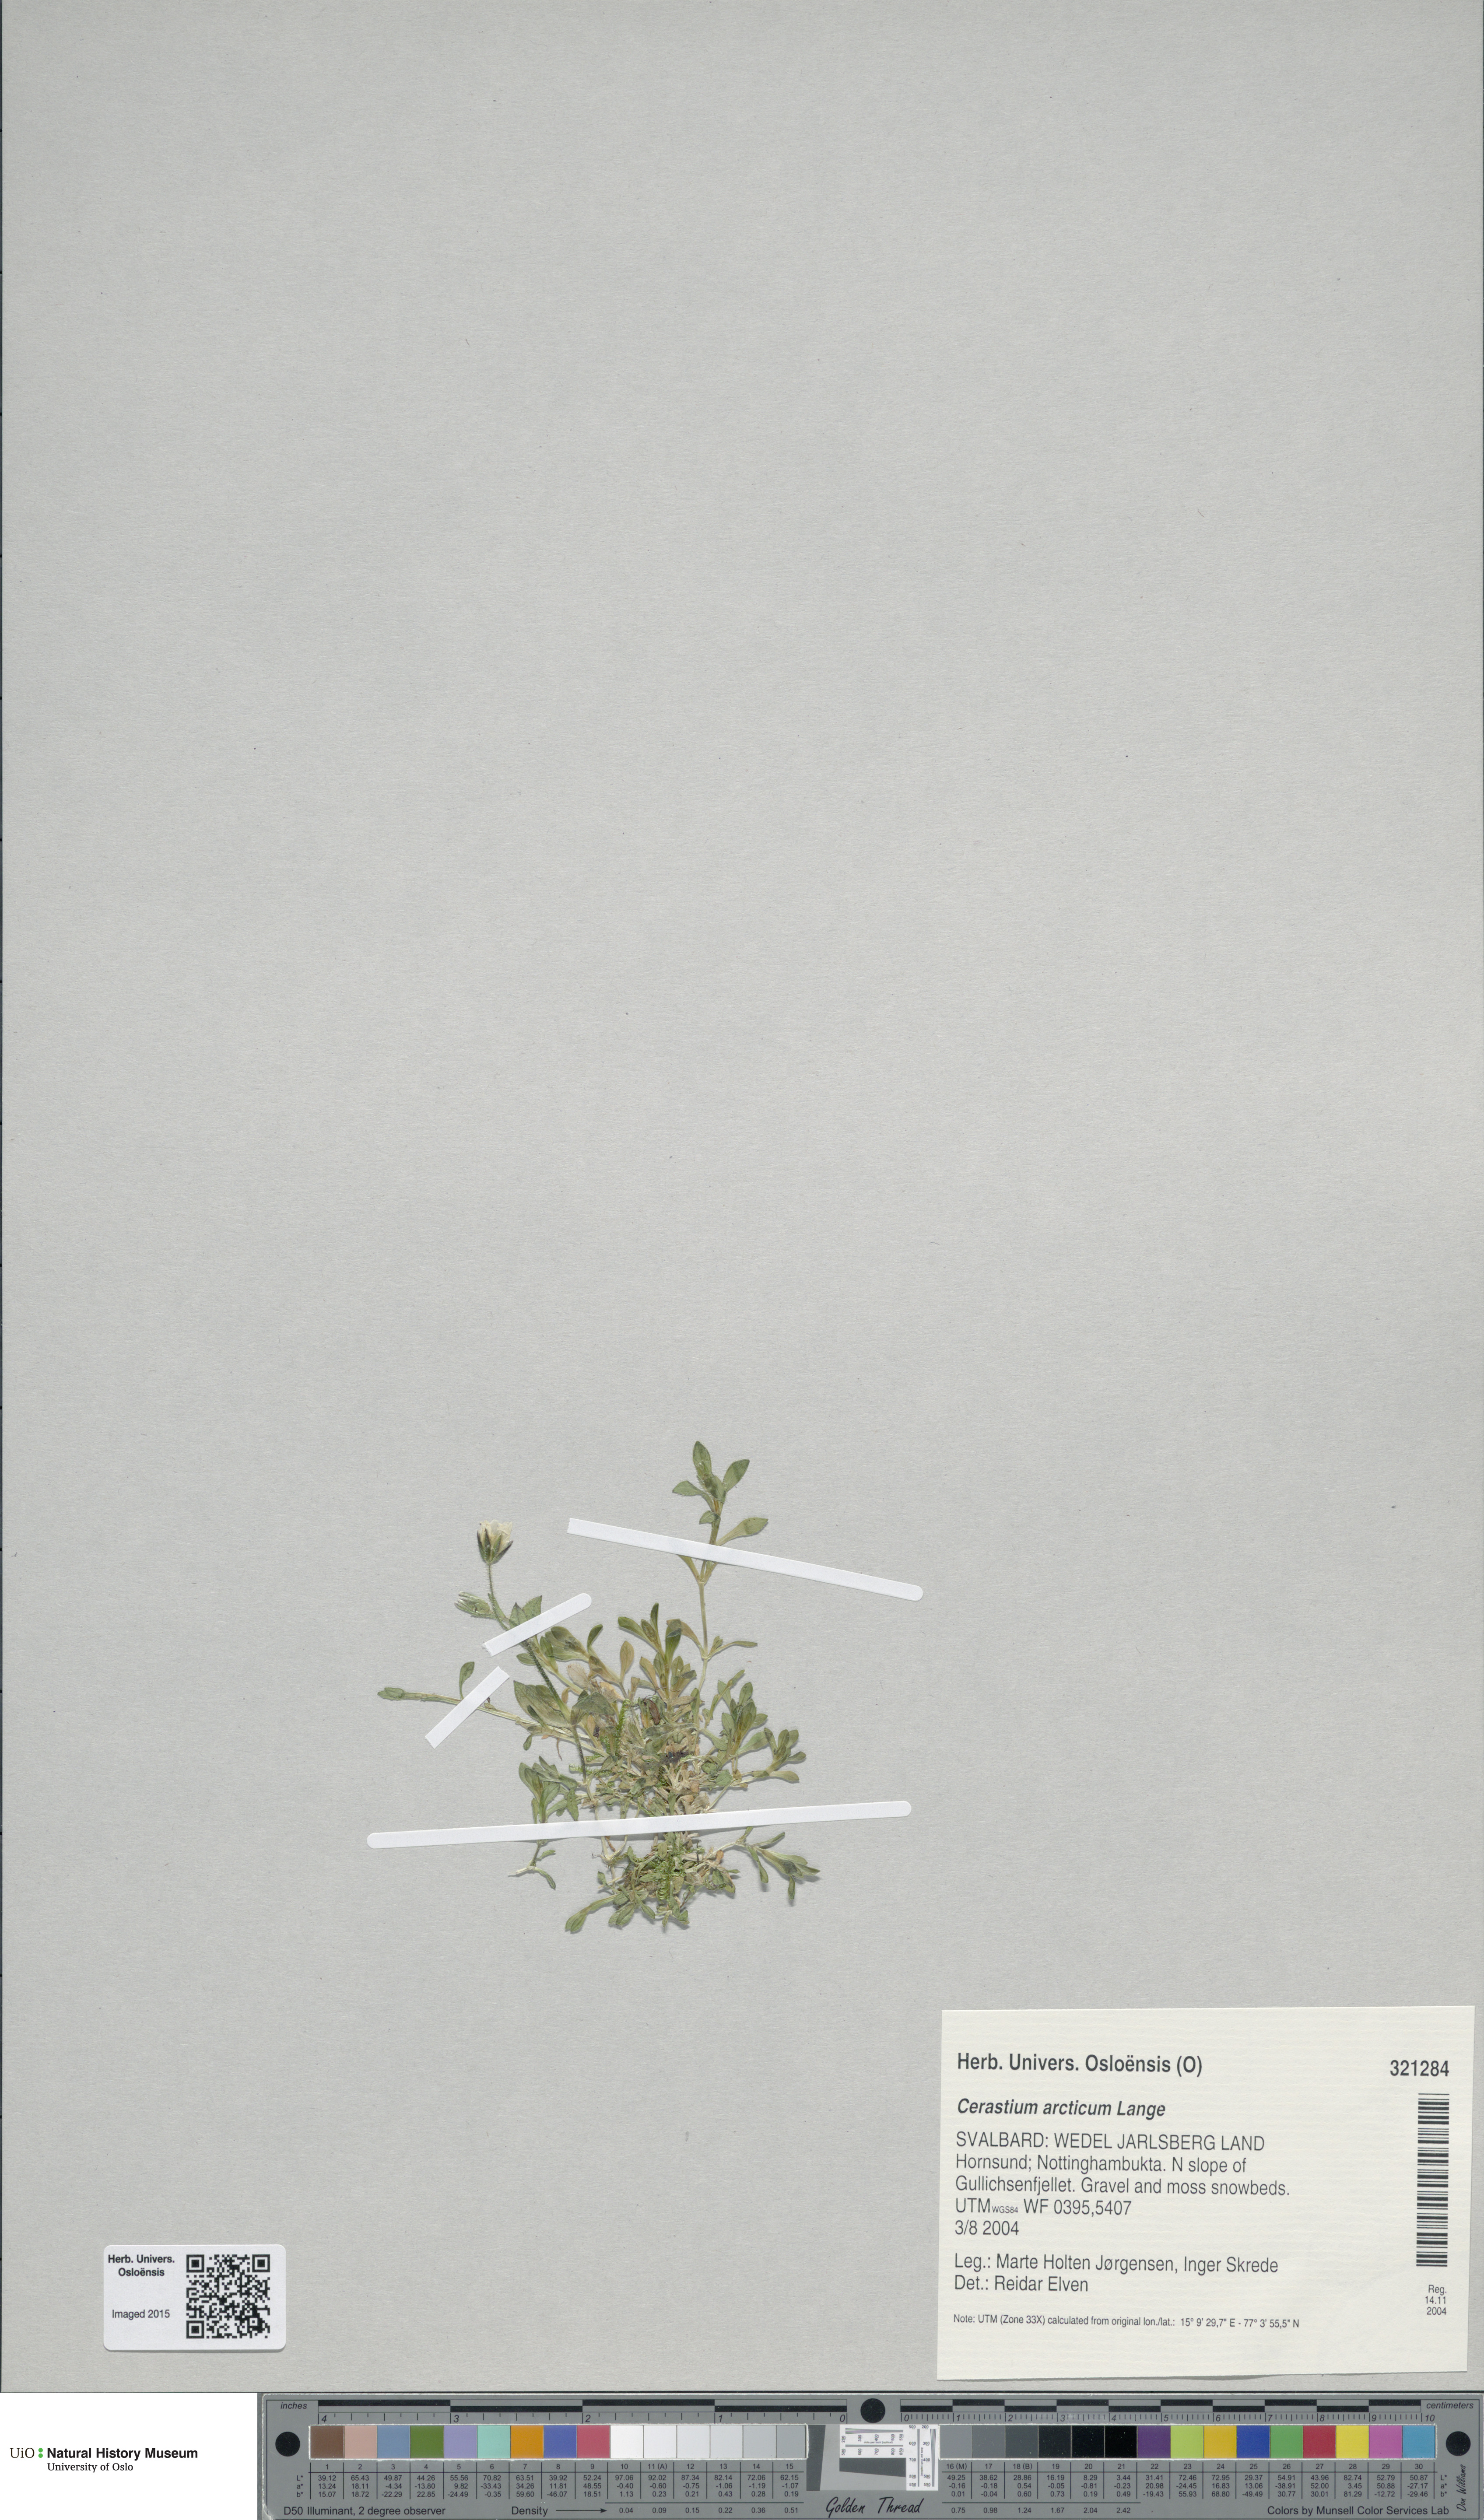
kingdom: Plantae
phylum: Tracheophyta
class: Magnoliopsida
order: Caryophyllales
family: Caryophyllaceae
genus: Cerastium
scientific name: Cerastium arcticum
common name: Arctic mouse-ear
